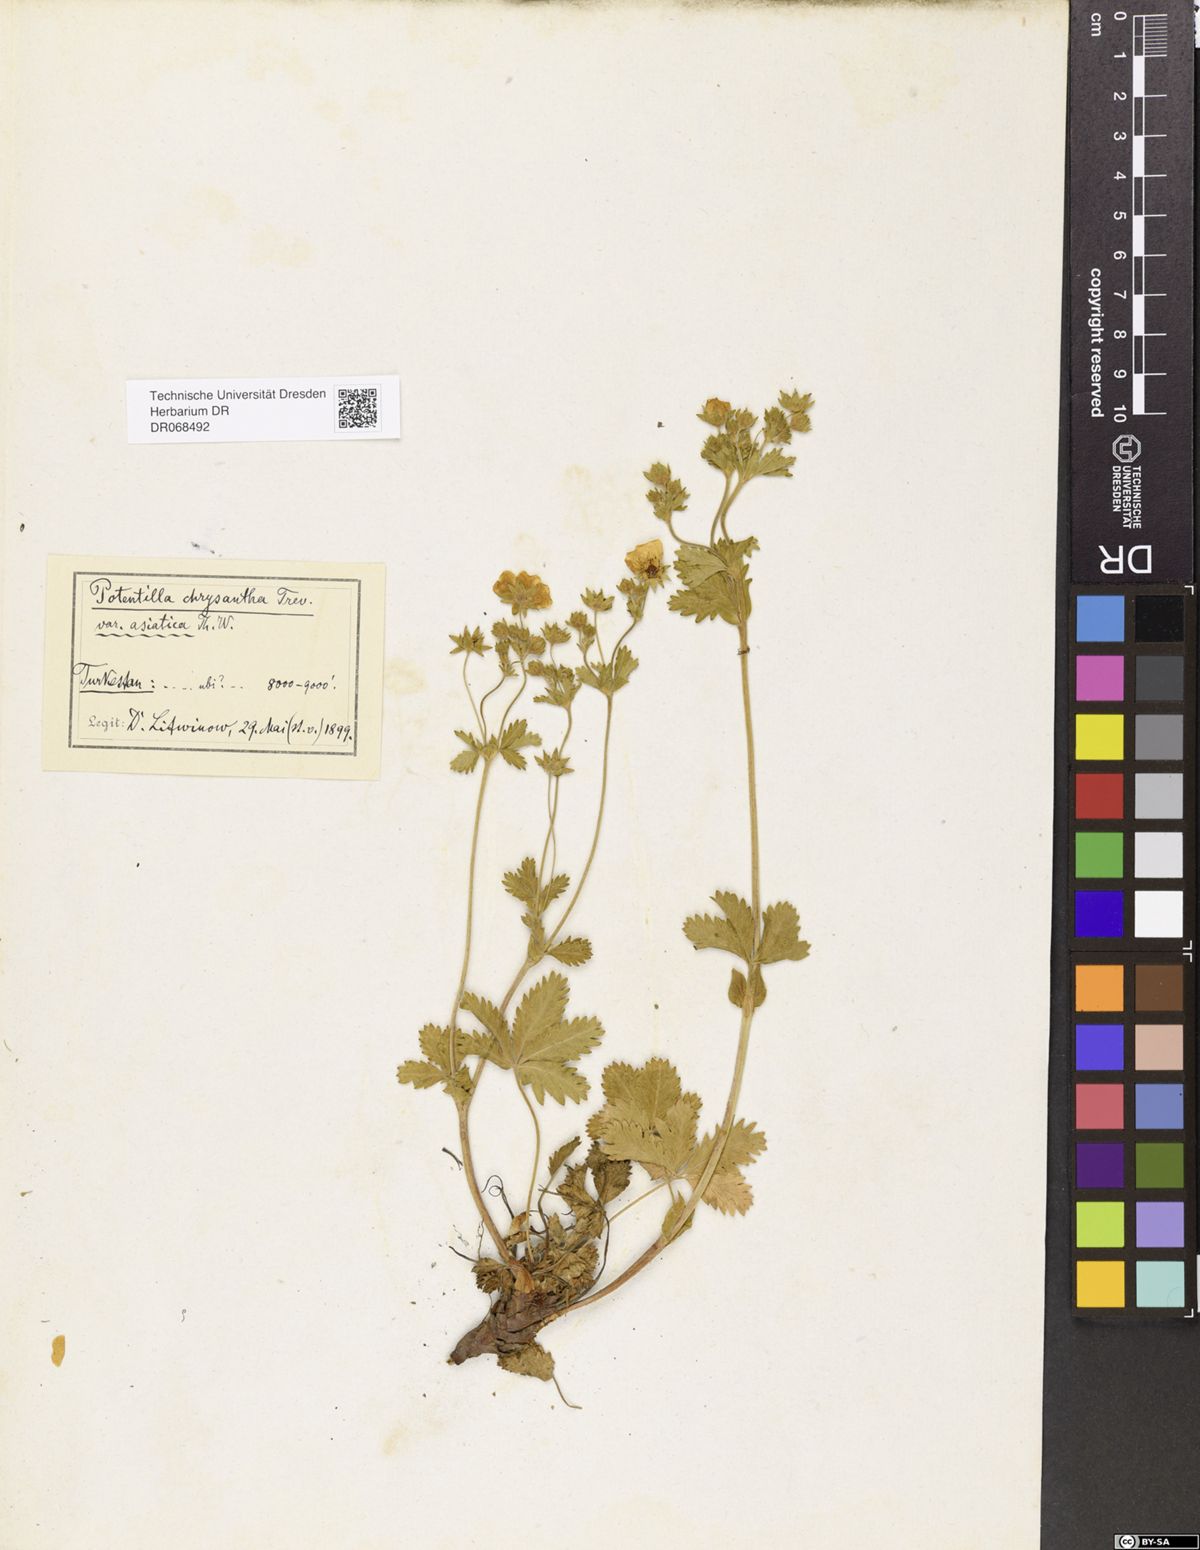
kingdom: Plantae
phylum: Tracheophyta
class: Magnoliopsida
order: Rosales
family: Rosaceae
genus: Potentilla
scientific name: Potentilla asiatica
